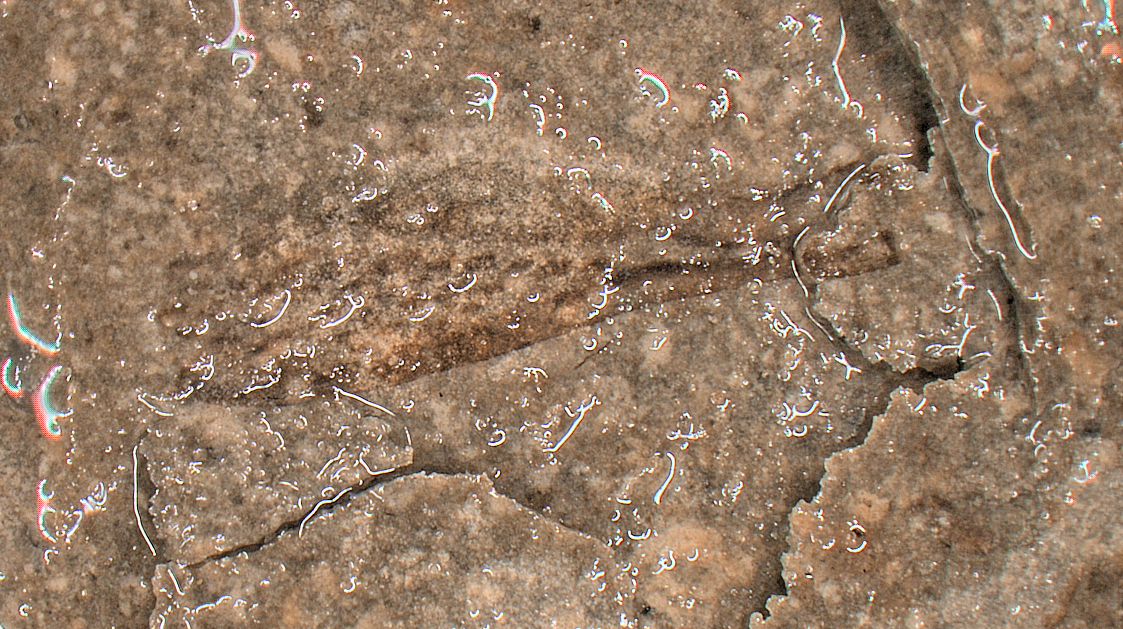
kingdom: Animalia
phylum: Arthropoda
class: Insecta
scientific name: Insecta
